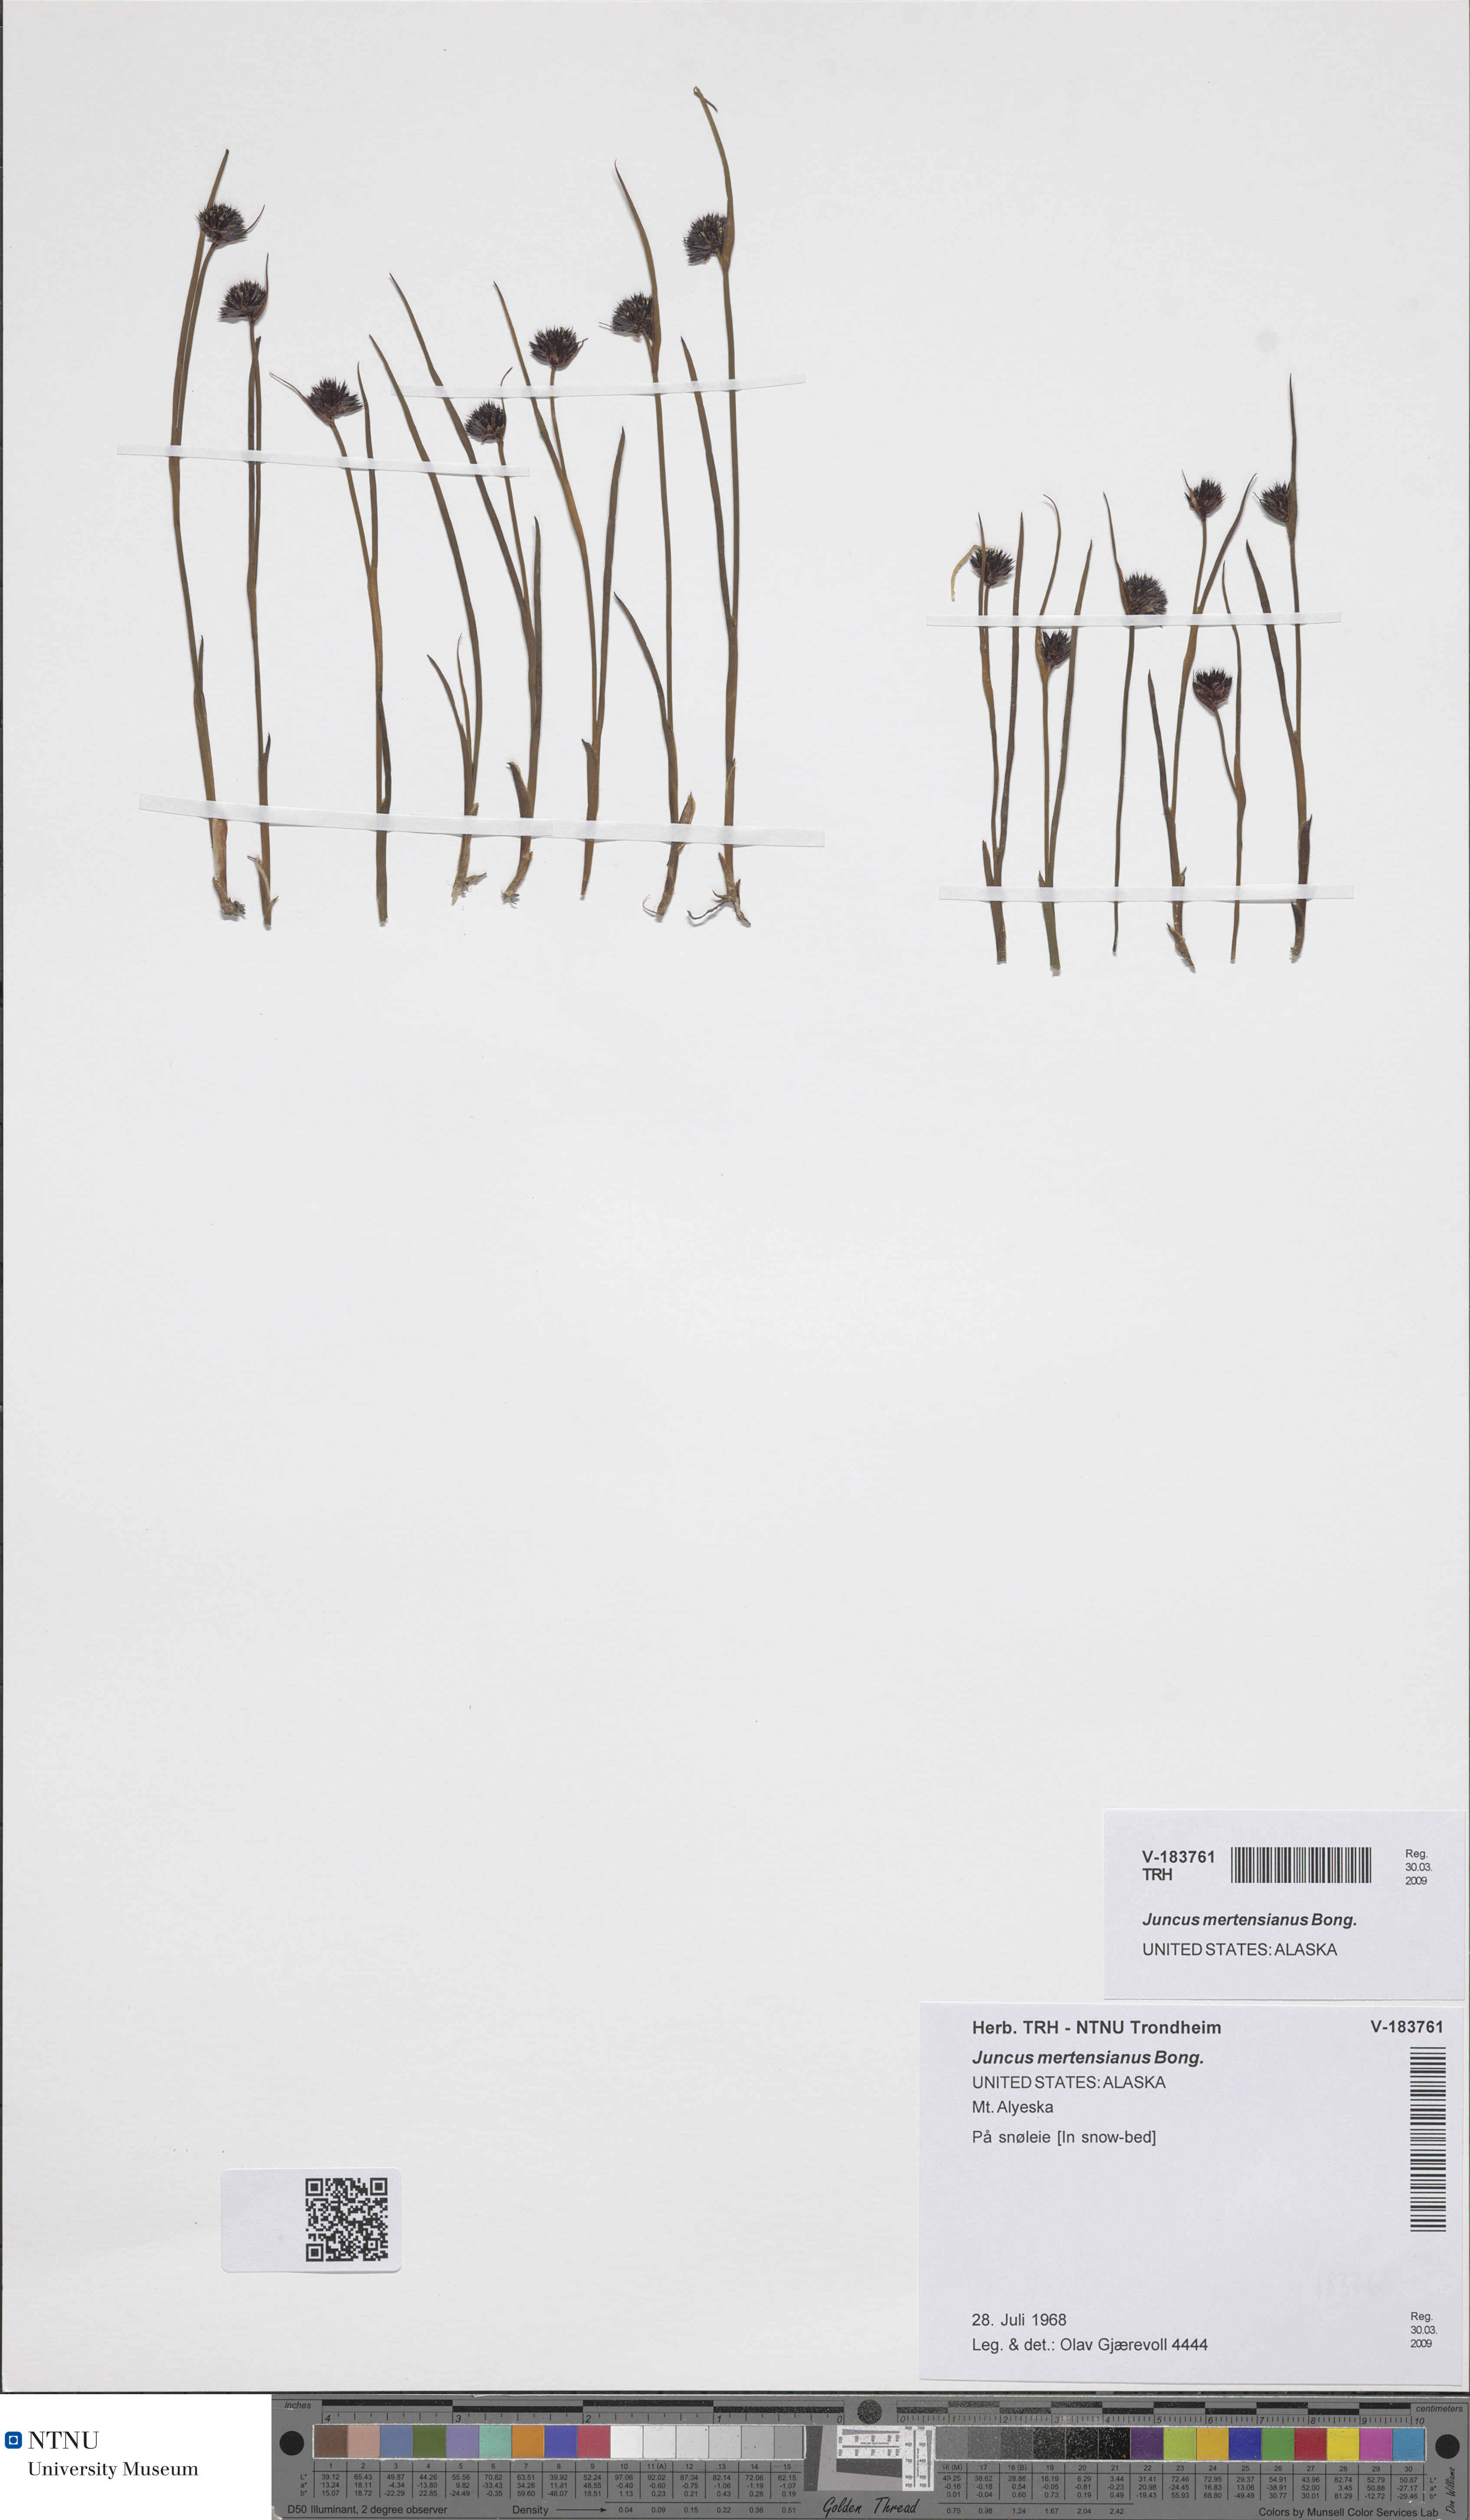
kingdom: Plantae
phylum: Tracheophyta
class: Liliopsida
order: Poales
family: Juncaceae
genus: Juncus
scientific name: Juncus mertensianus
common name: Merten's rush
